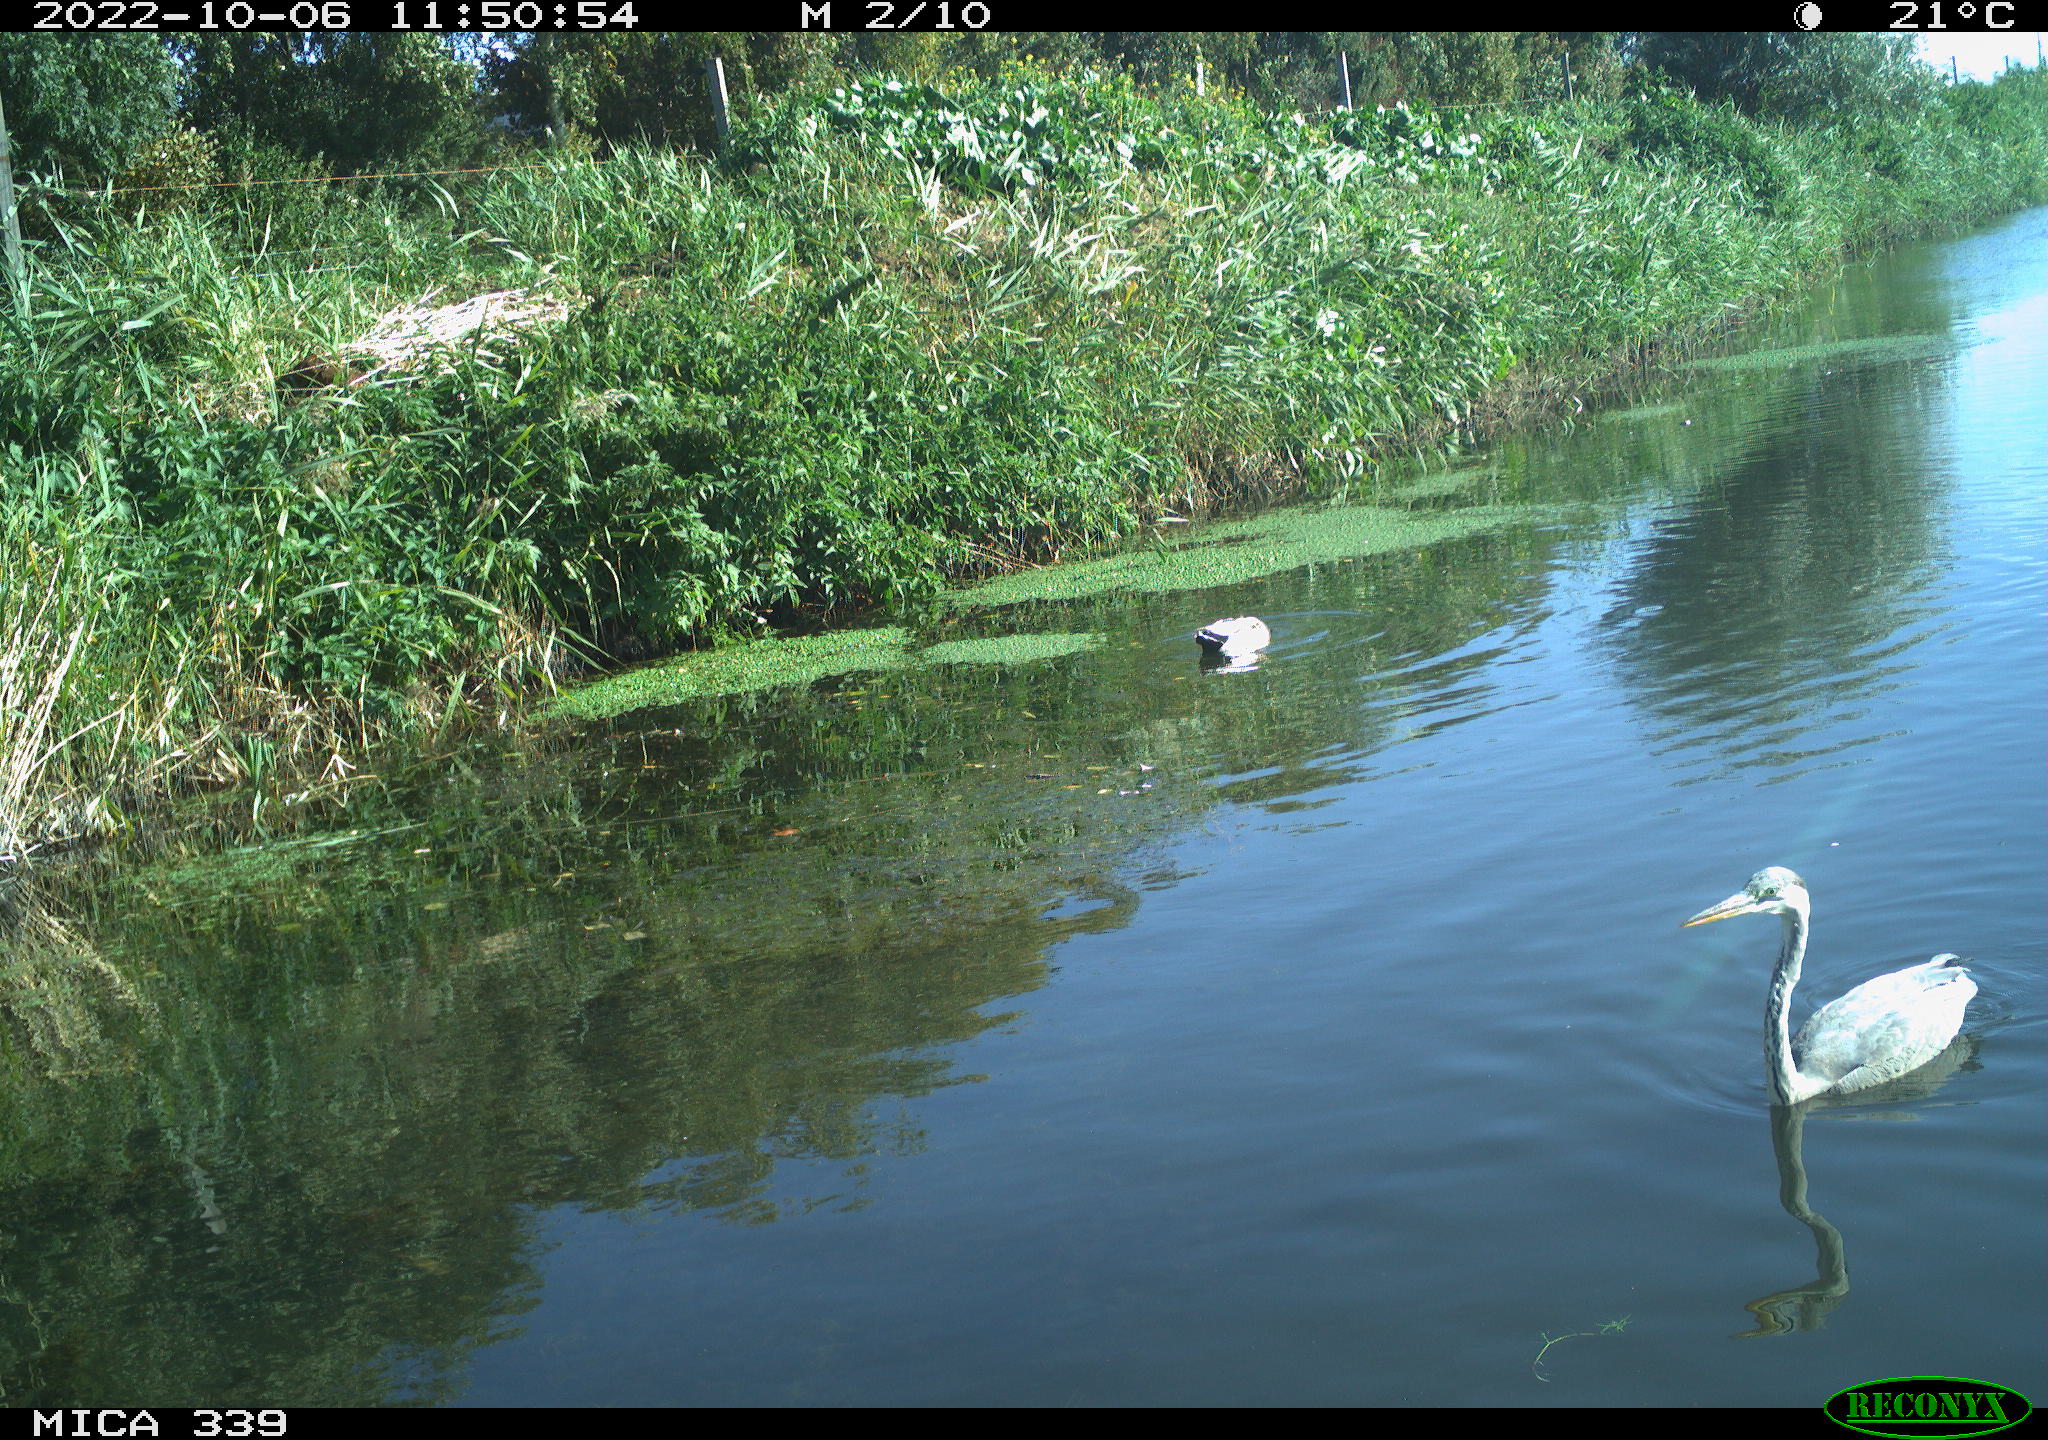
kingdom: Animalia
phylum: Chordata
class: Aves
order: Pelecaniformes
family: Ardeidae
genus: Ardea
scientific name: Ardea cinerea
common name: Grey heron
